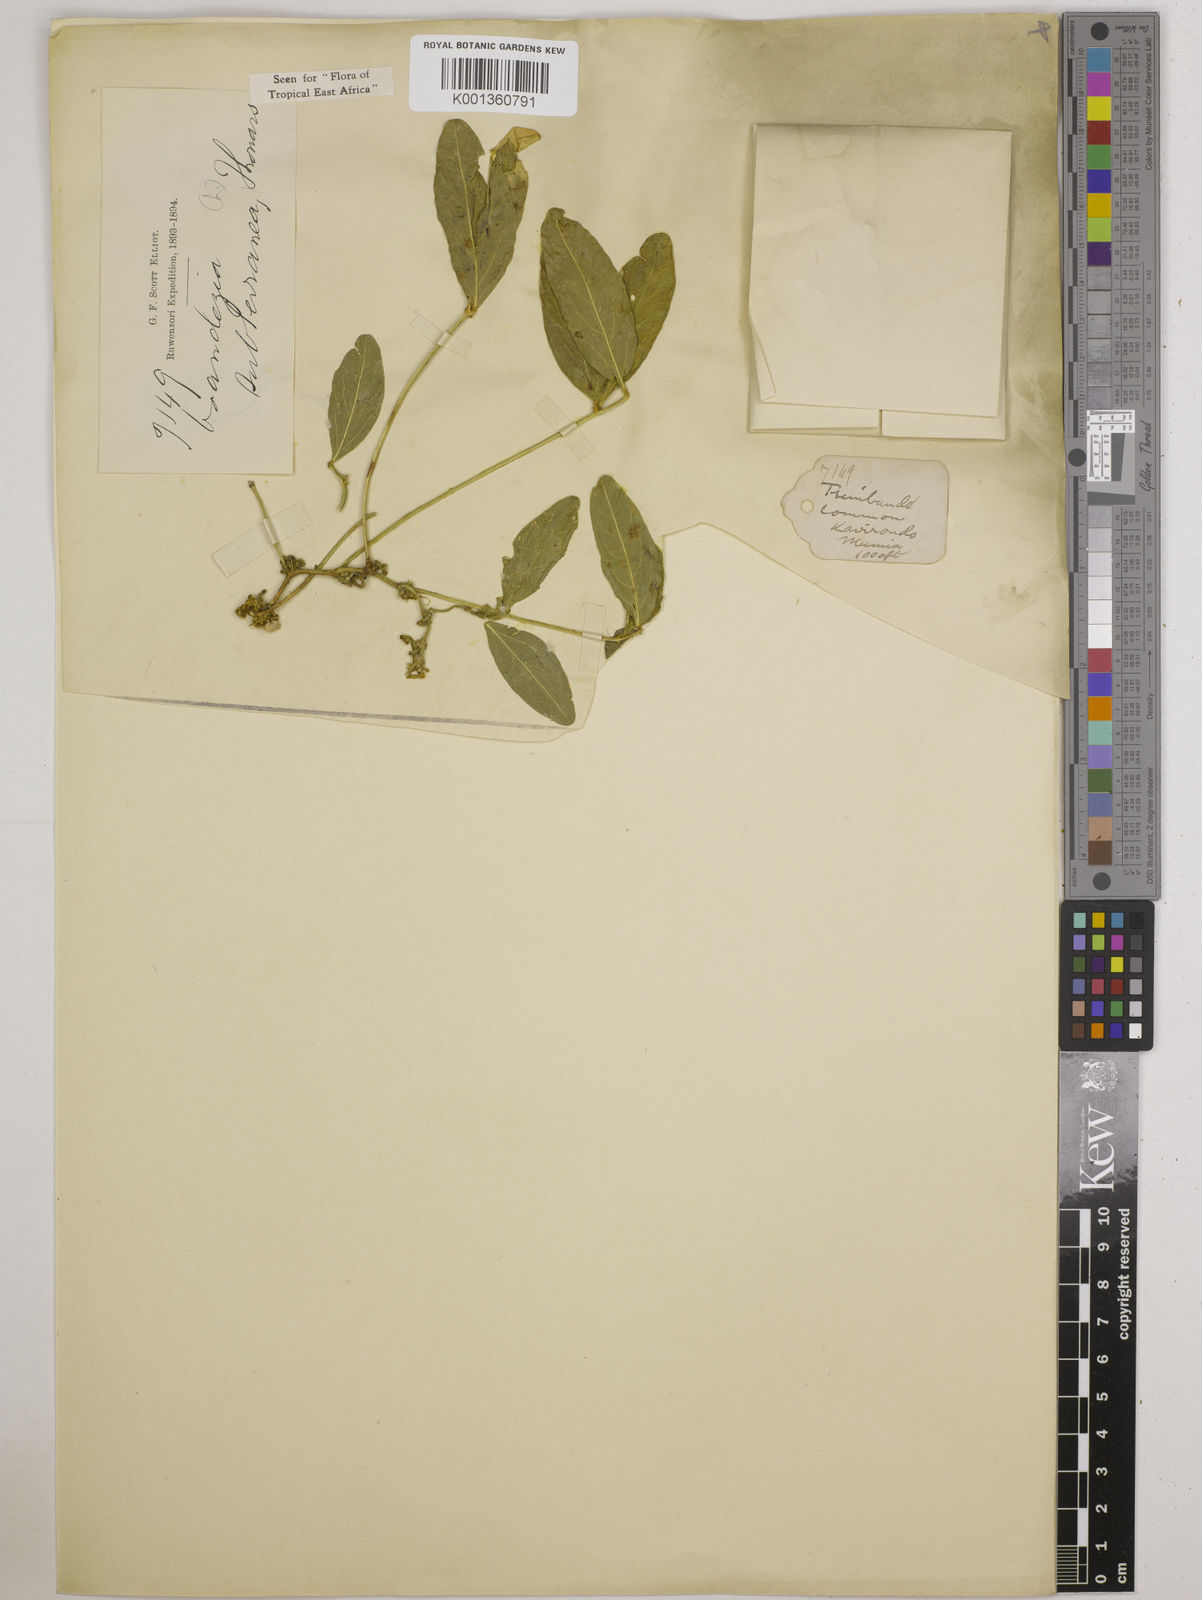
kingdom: Plantae
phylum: Tracheophyta
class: Magnoliopsida
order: Fabales
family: Fabaceae
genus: Vigna
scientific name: Vigna subterranea
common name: Bambara groundnut
